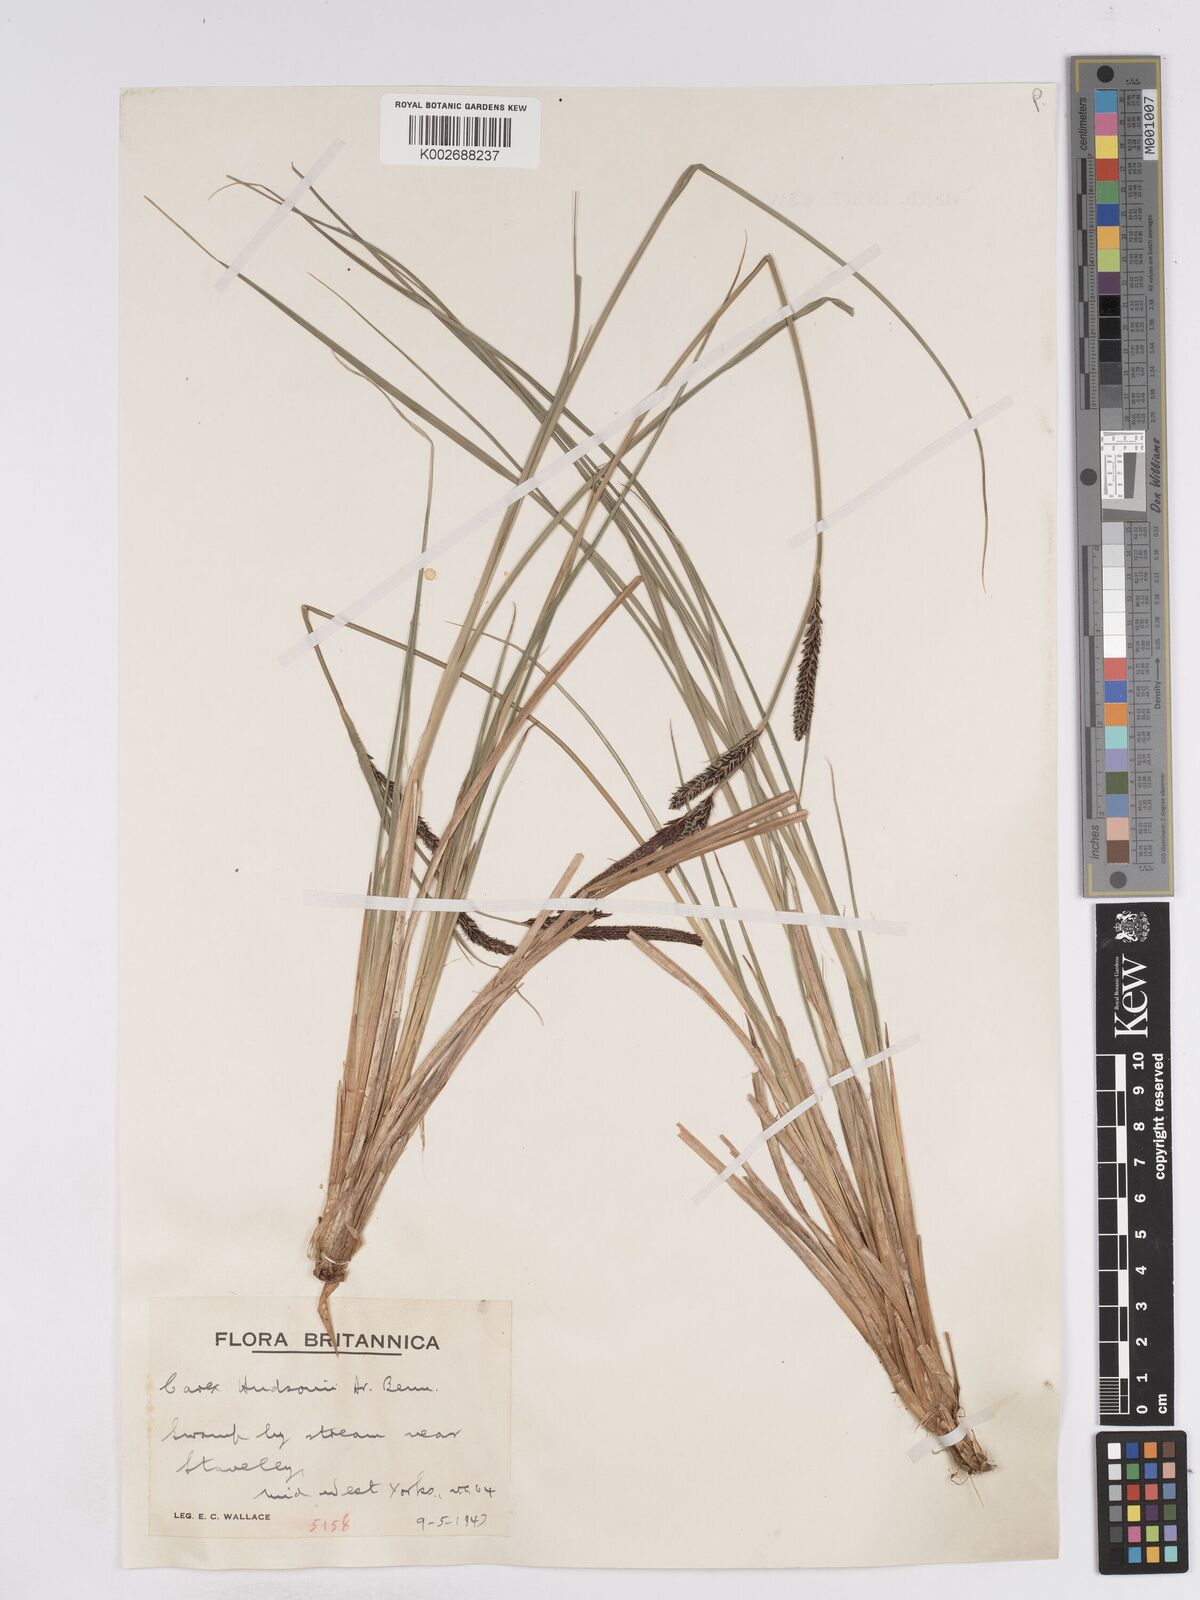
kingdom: Plantae
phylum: Tracheophyta
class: Liliopsida
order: Poales
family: Cyperaceae
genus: Carex
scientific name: Carex elata
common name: Tufted sedge
